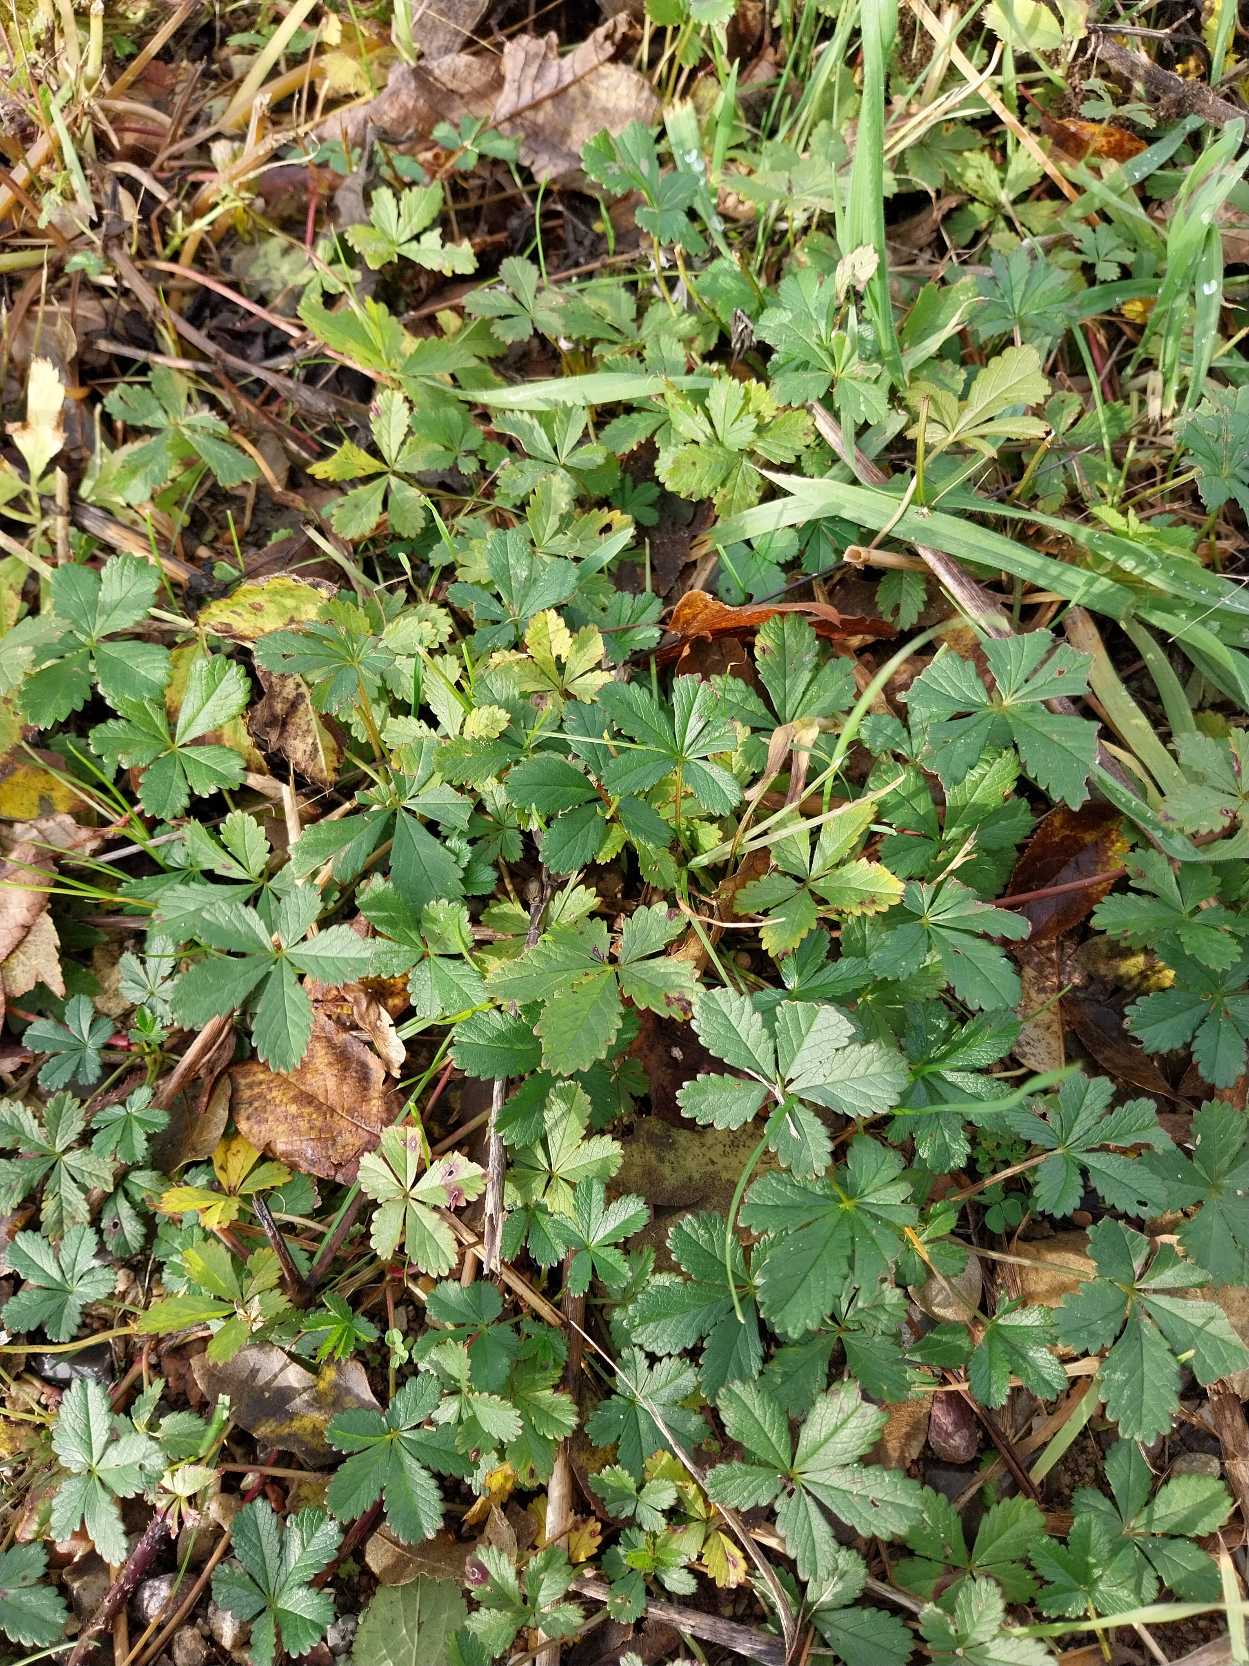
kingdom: Plantae
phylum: Tracheophyta
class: Magnoliopsida
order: Rosales
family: Rosaceae
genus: Potentilla
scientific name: Potentilla reptans
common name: Krybende potentil
